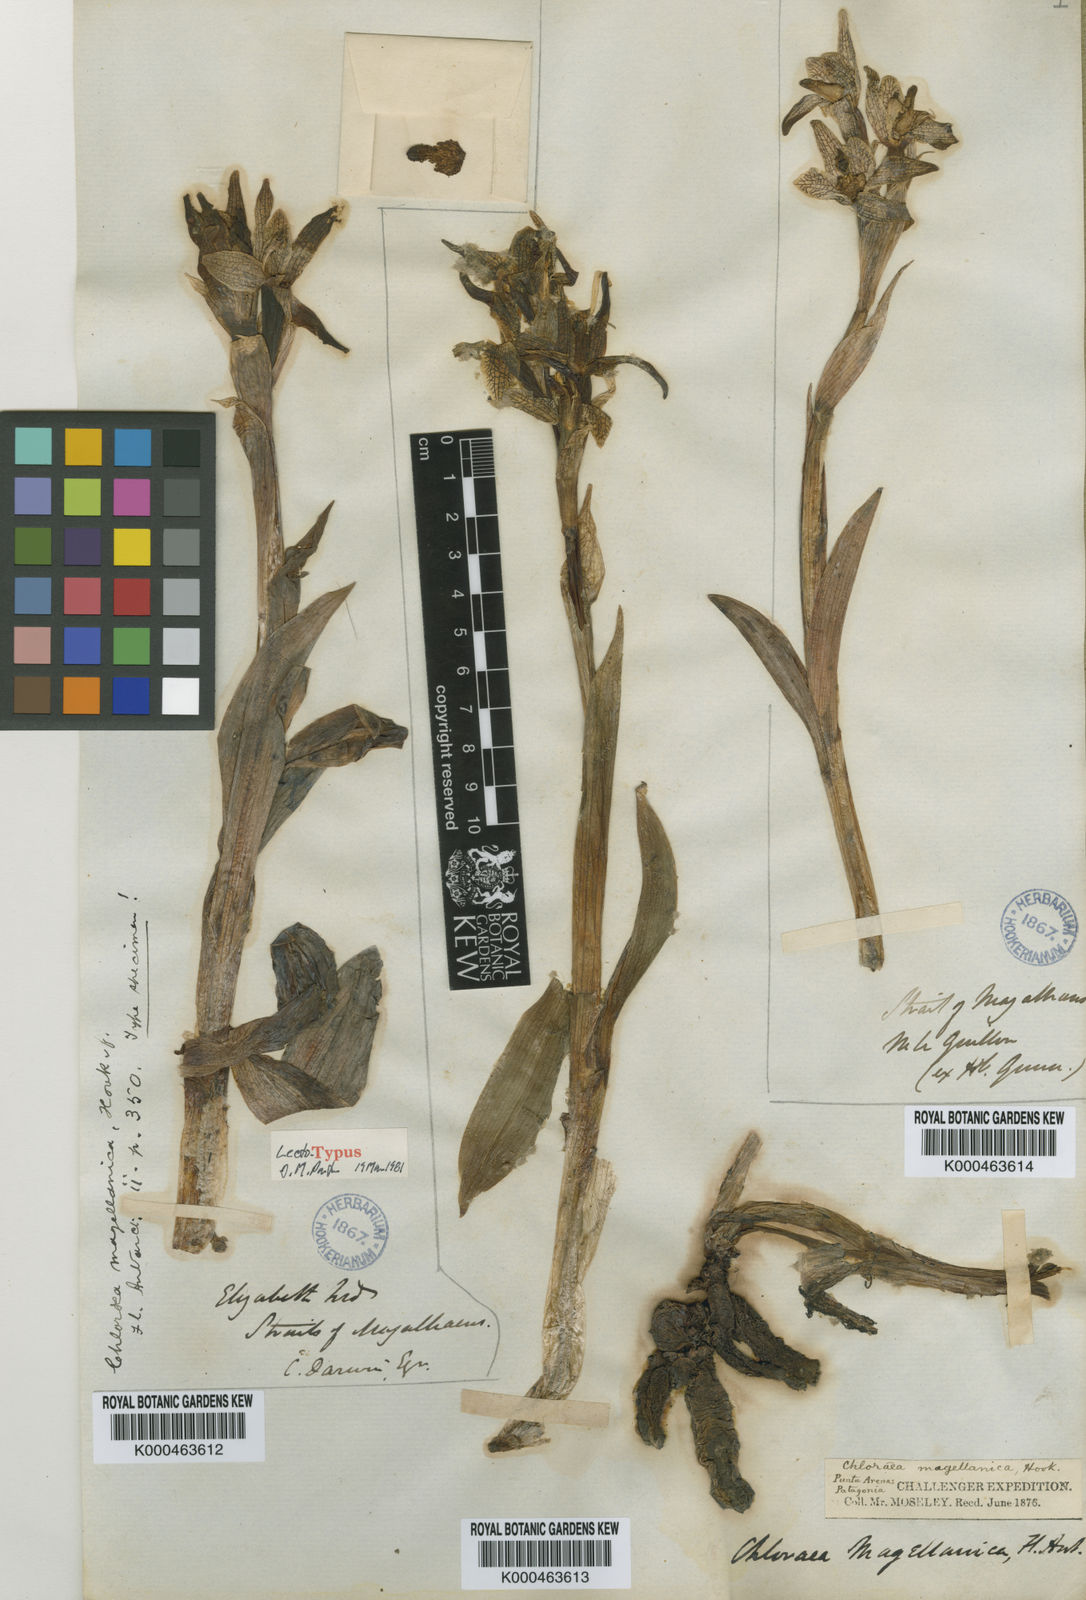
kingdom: Plantae
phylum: Tracheophyta
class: Liliopsida
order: Asparagales
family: Orchidaceae
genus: Chloraea
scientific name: Chloraea magellanica
